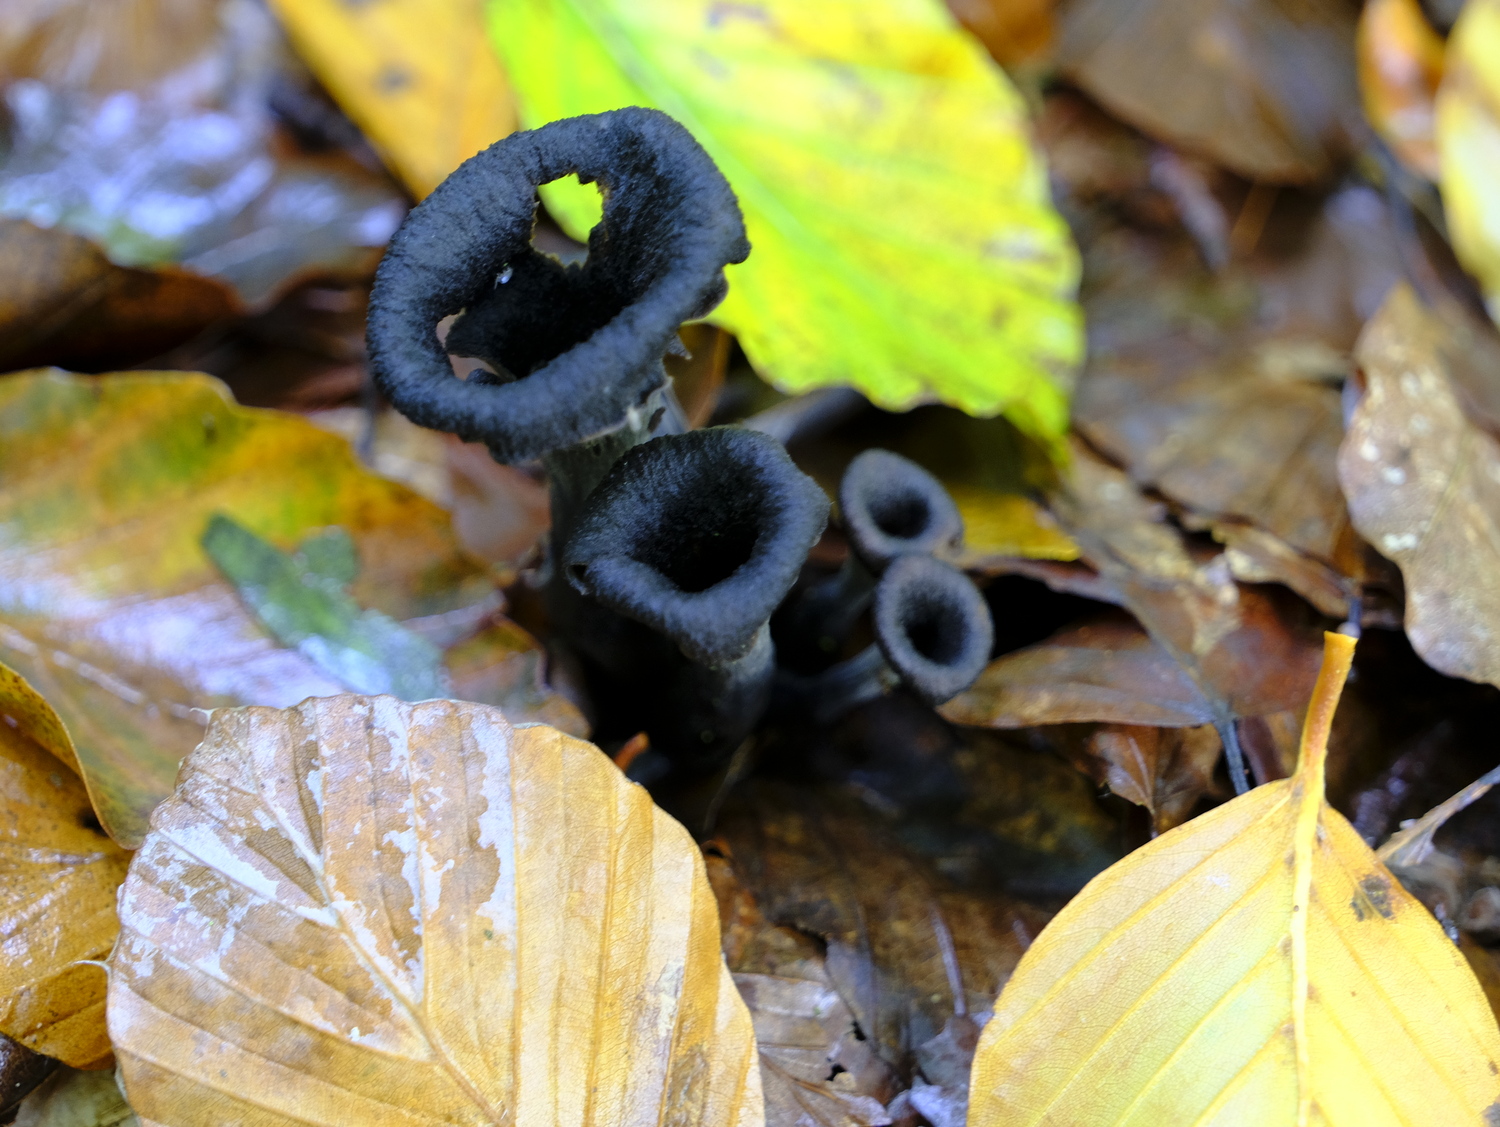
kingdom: Fungi
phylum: Basidiomycota
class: Agaricomycetes
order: Cantharellales
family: Hydnaceae
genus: Craterellus
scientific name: Craterellus cornucopioides
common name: trompetsvamp
